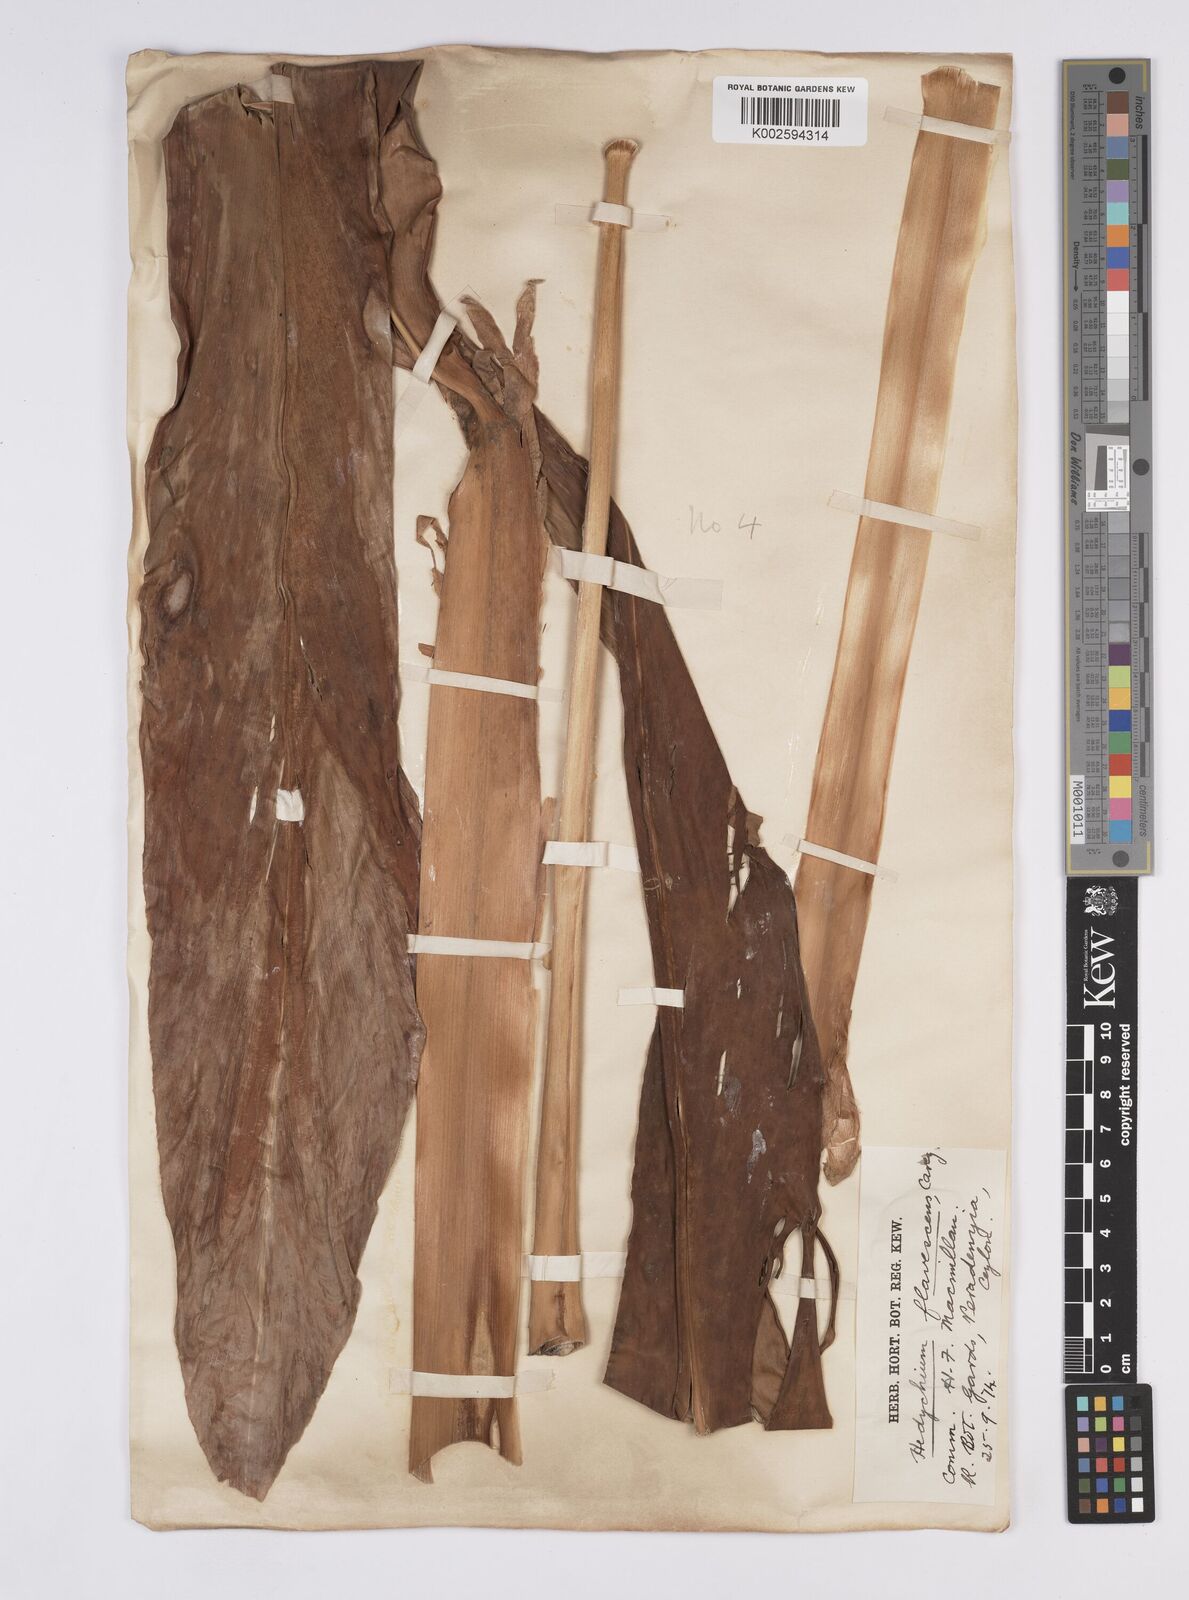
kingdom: Plantae
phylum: Tracheophyta
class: Liliopsida
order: Zingiberales
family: Zingiberaceae
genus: Hedychium
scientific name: Hedychium flavescens
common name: Yellow ginger
